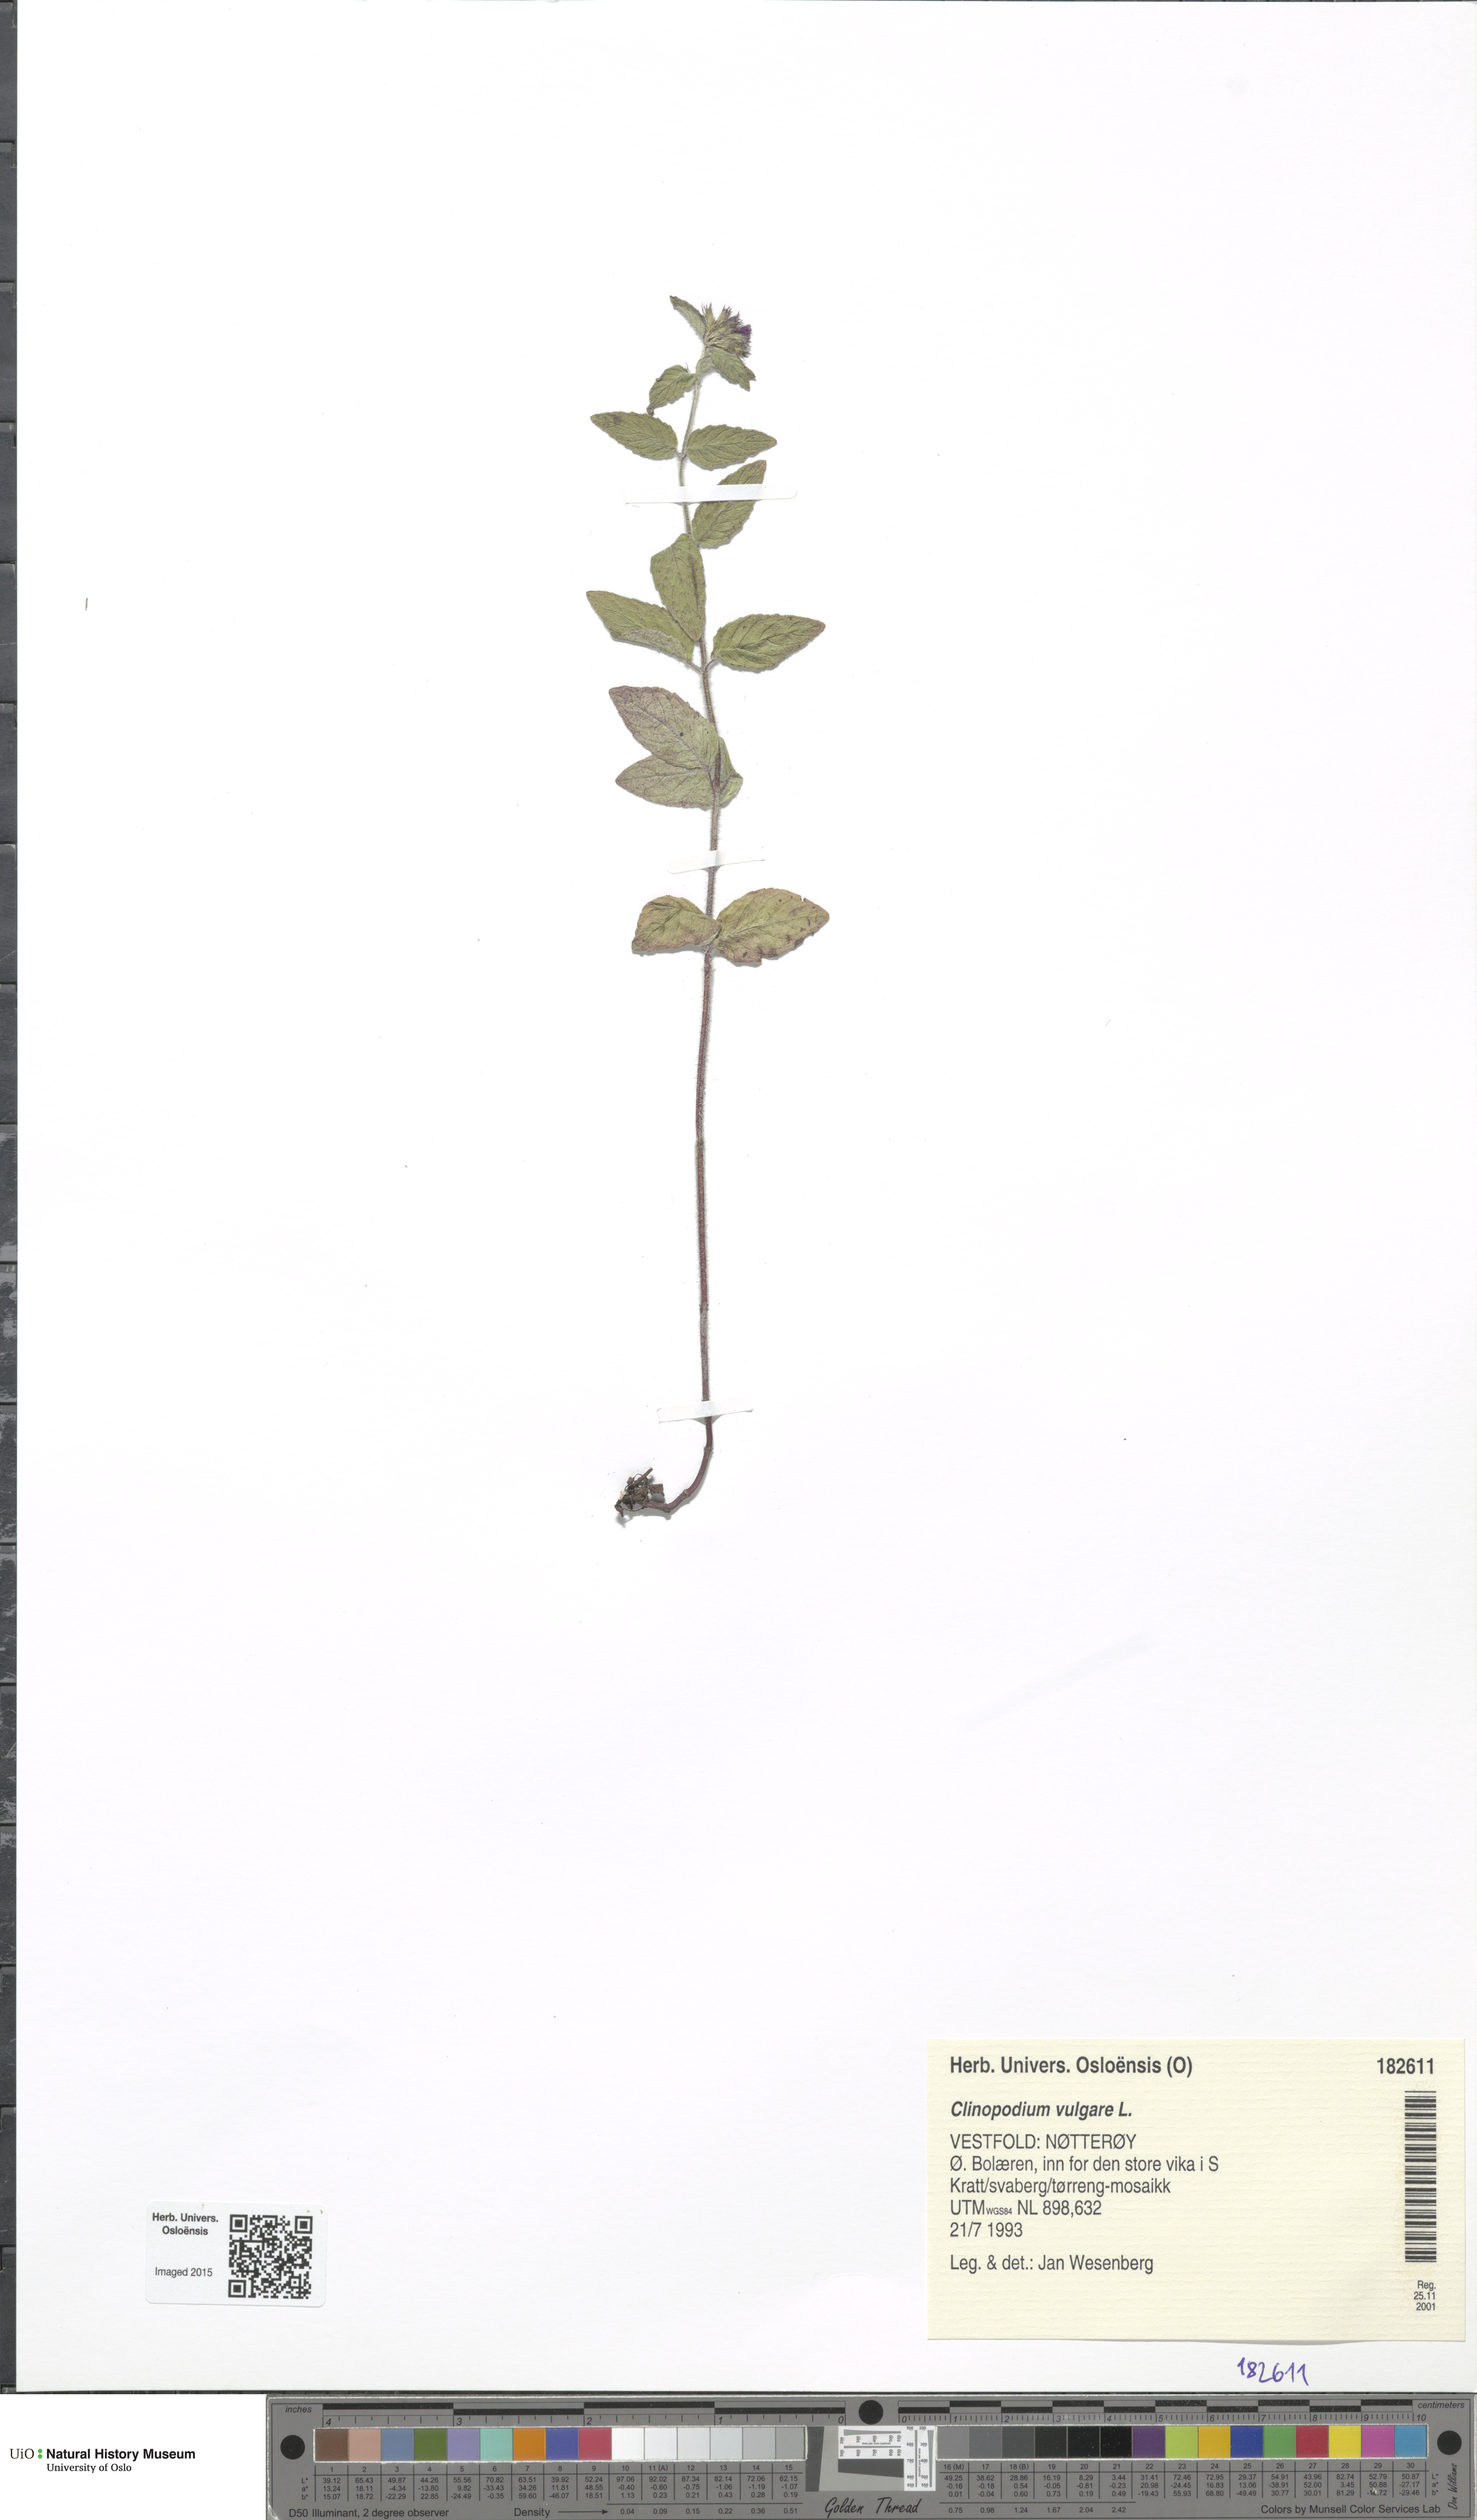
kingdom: Plantae
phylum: Tracheophyta
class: Magnoliopsida
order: Lamiales
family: Lamiaceae
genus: Clinopodium
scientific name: Clinopodium vulgare
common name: Wild basil
